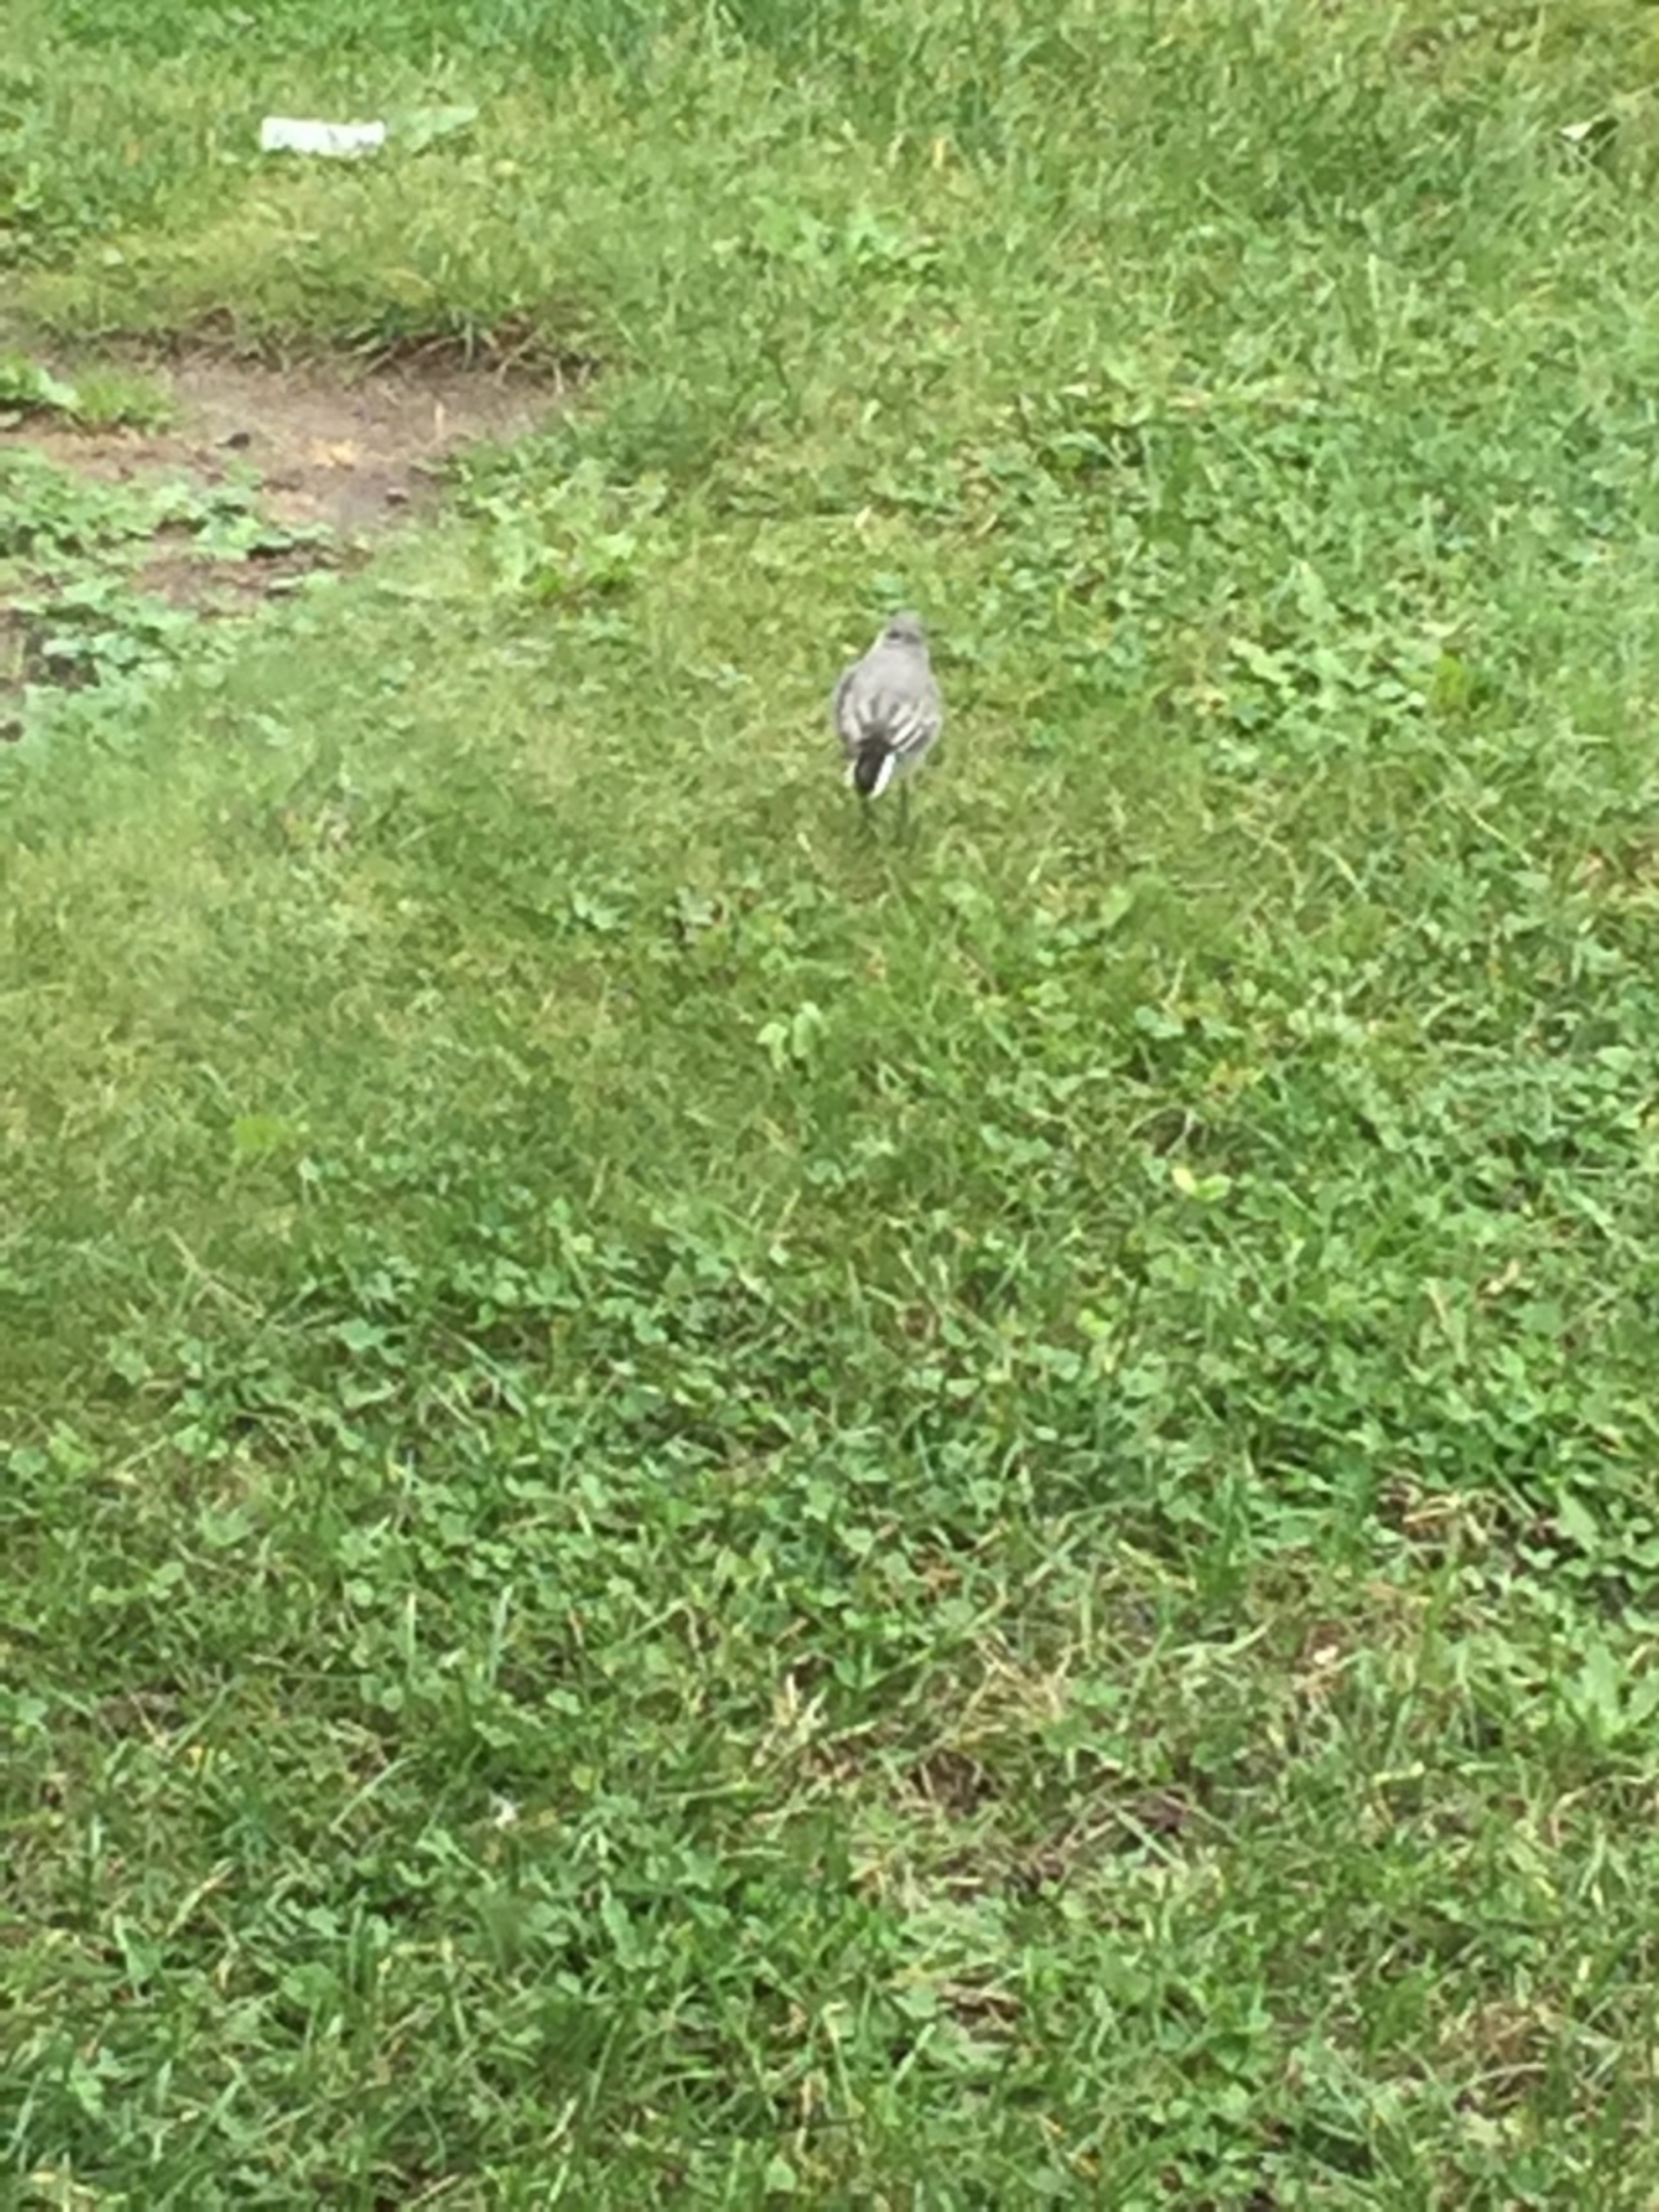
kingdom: Animalia
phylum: Chordata
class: Aves
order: Passeriformes
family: Motacillidae
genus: Motacilla
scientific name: Motacilla alba
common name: Hvid vipstjert
